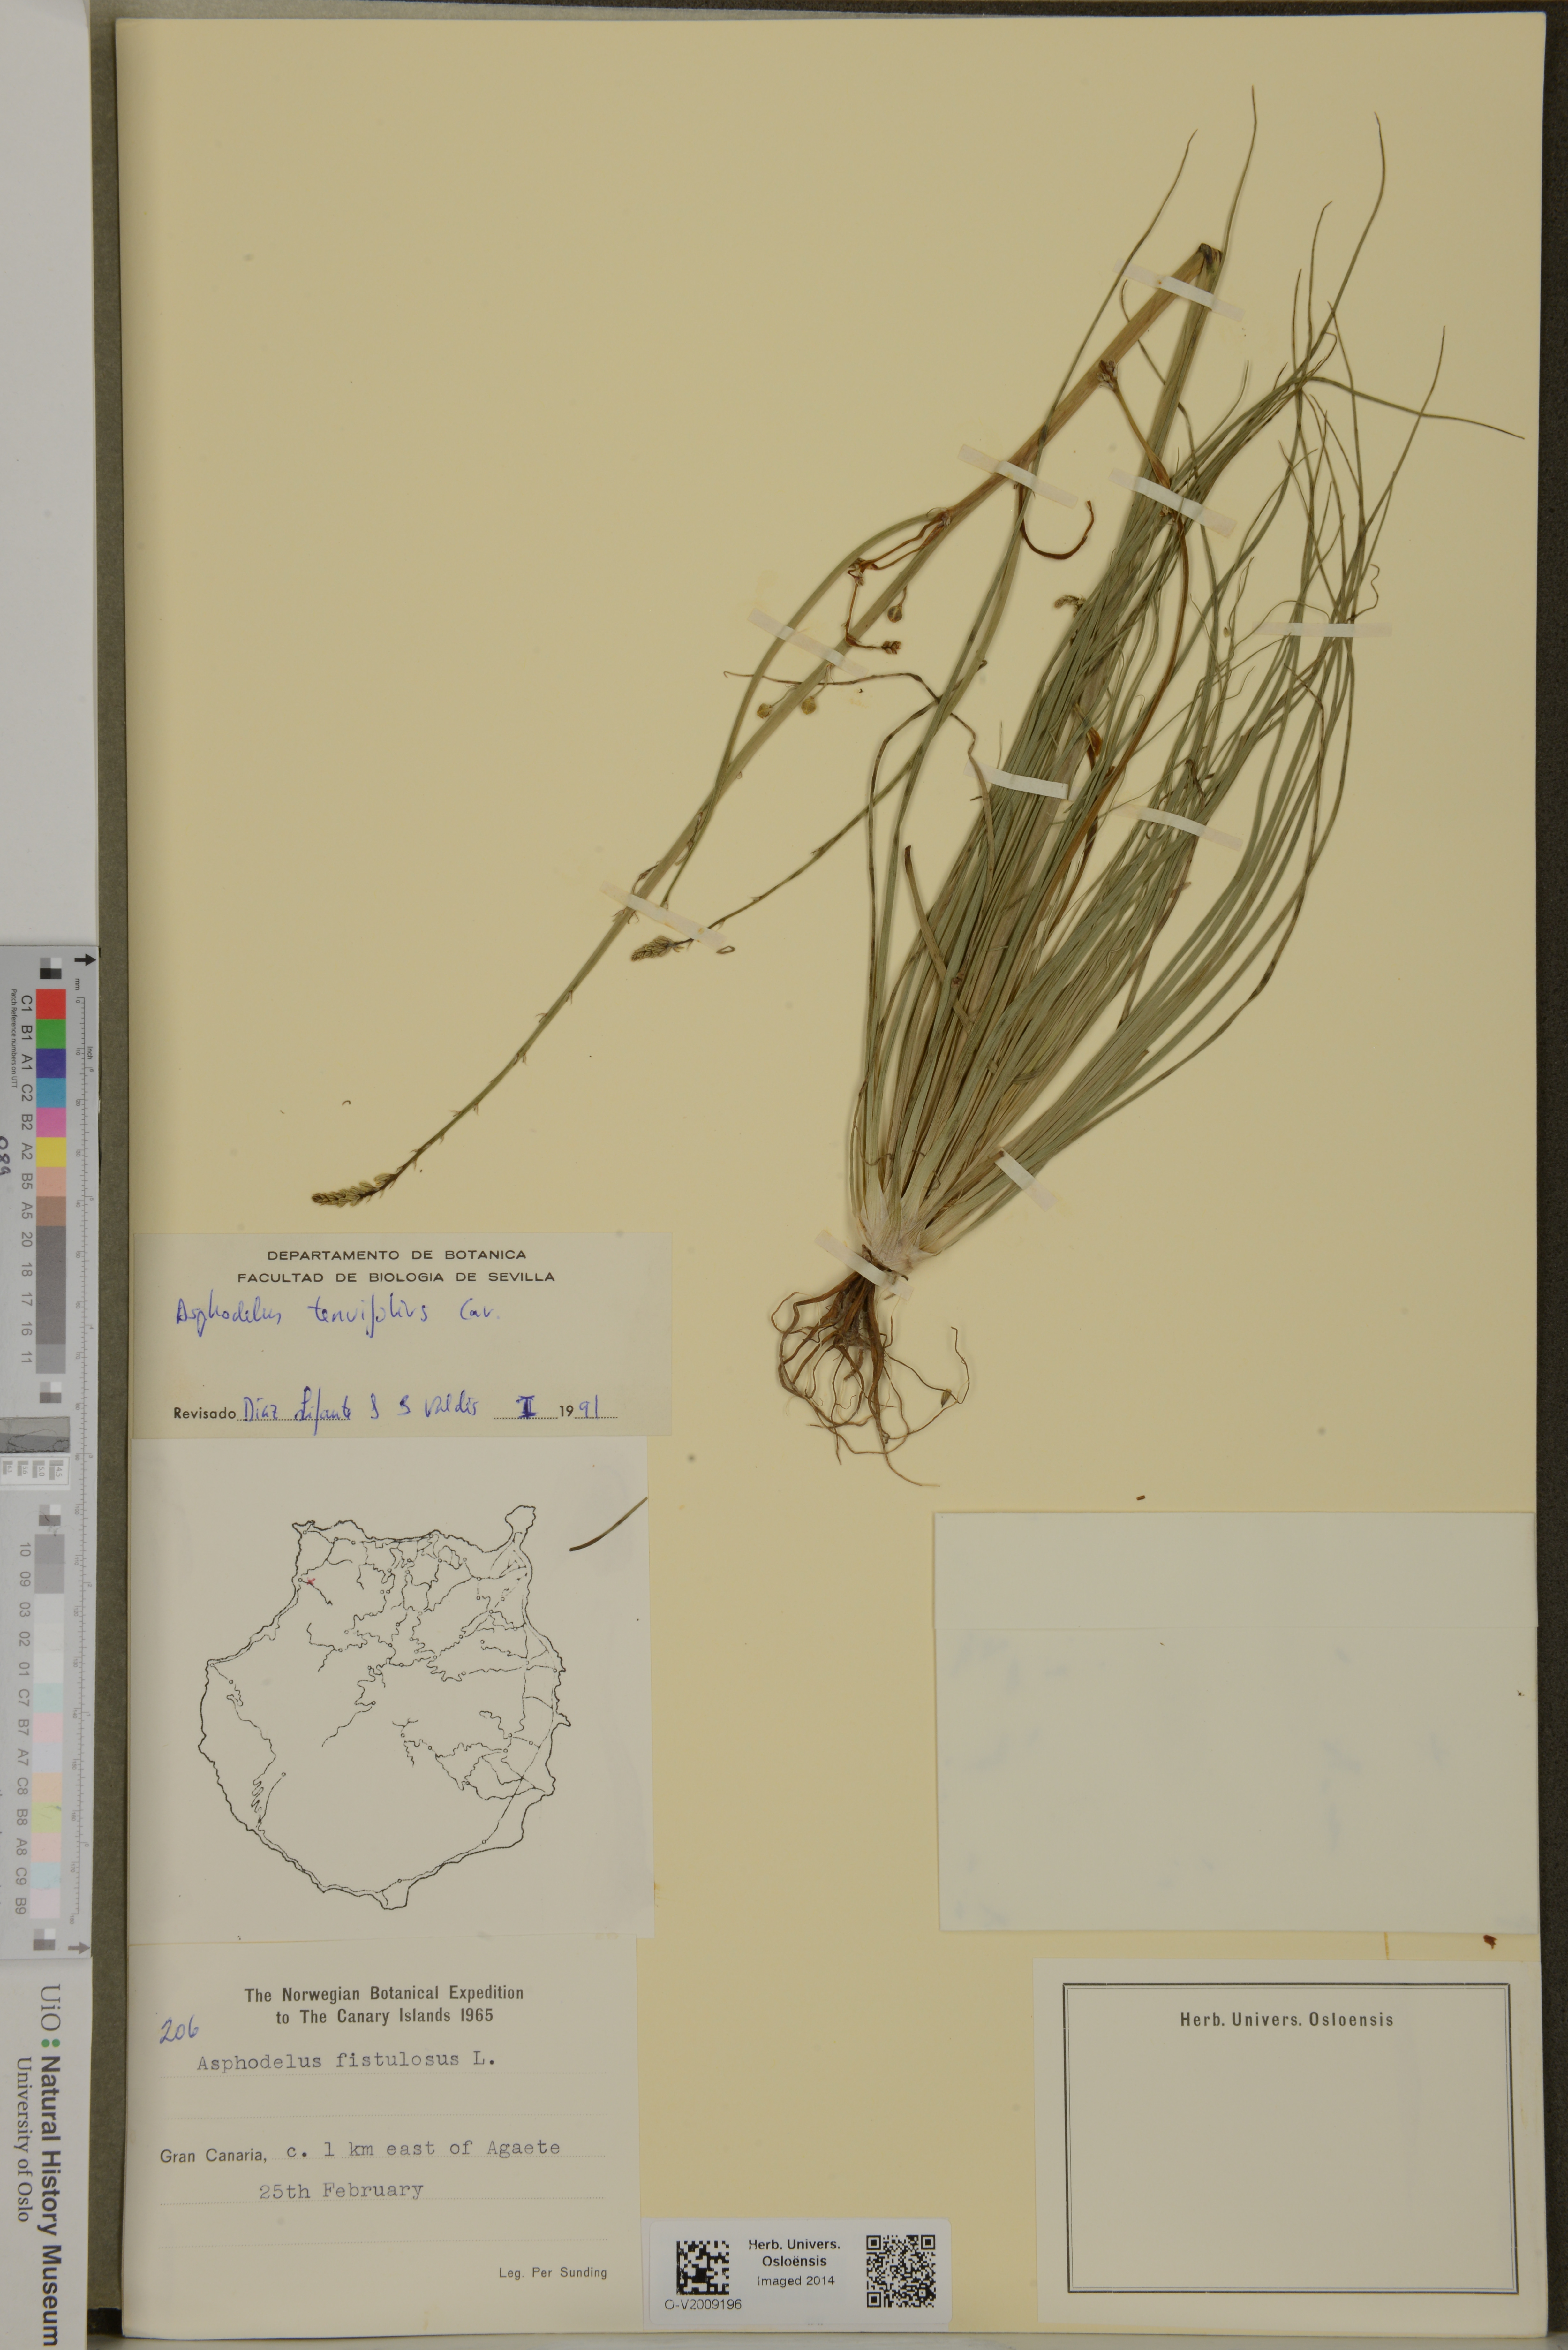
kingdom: Plantae
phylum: Tracheophyta
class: Liliopsida
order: Asparagales
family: Asphodelaceae
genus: Asphodelus
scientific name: Asphodelus tenuifolius
